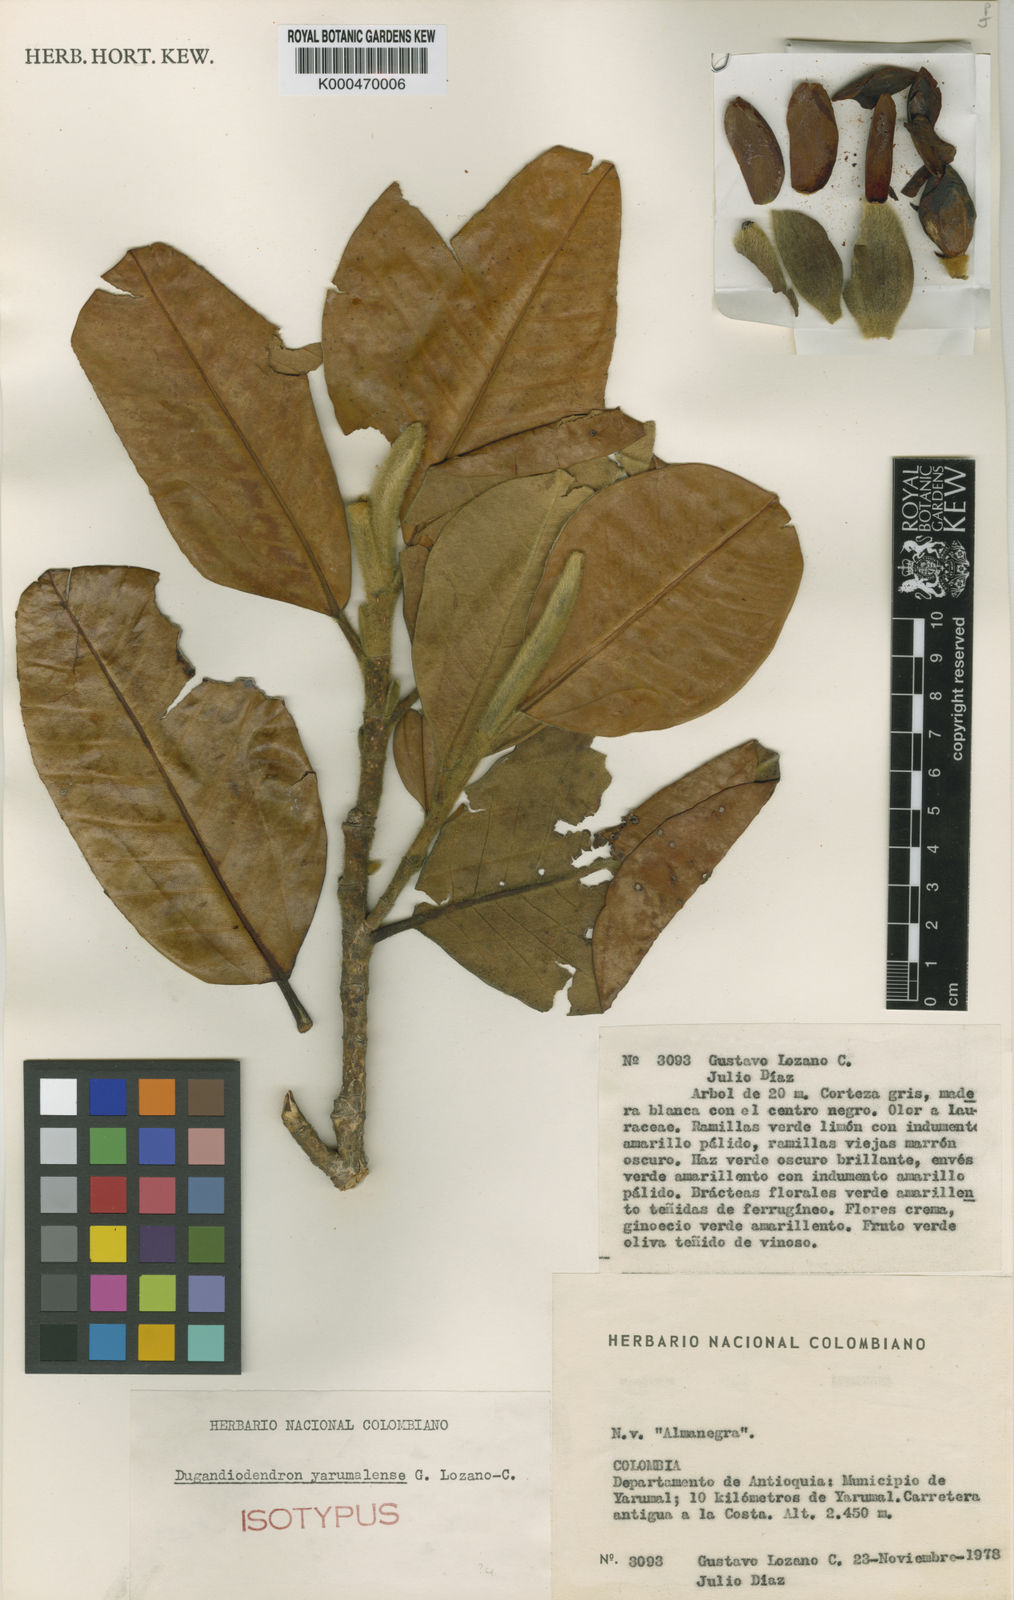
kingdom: Plantae
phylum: Tracheophyta
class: Magnoliopsida
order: Magnoliales
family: Magnoliaceae
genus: Magnolia
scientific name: Magnolia yarumalensis
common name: Purple turkey
